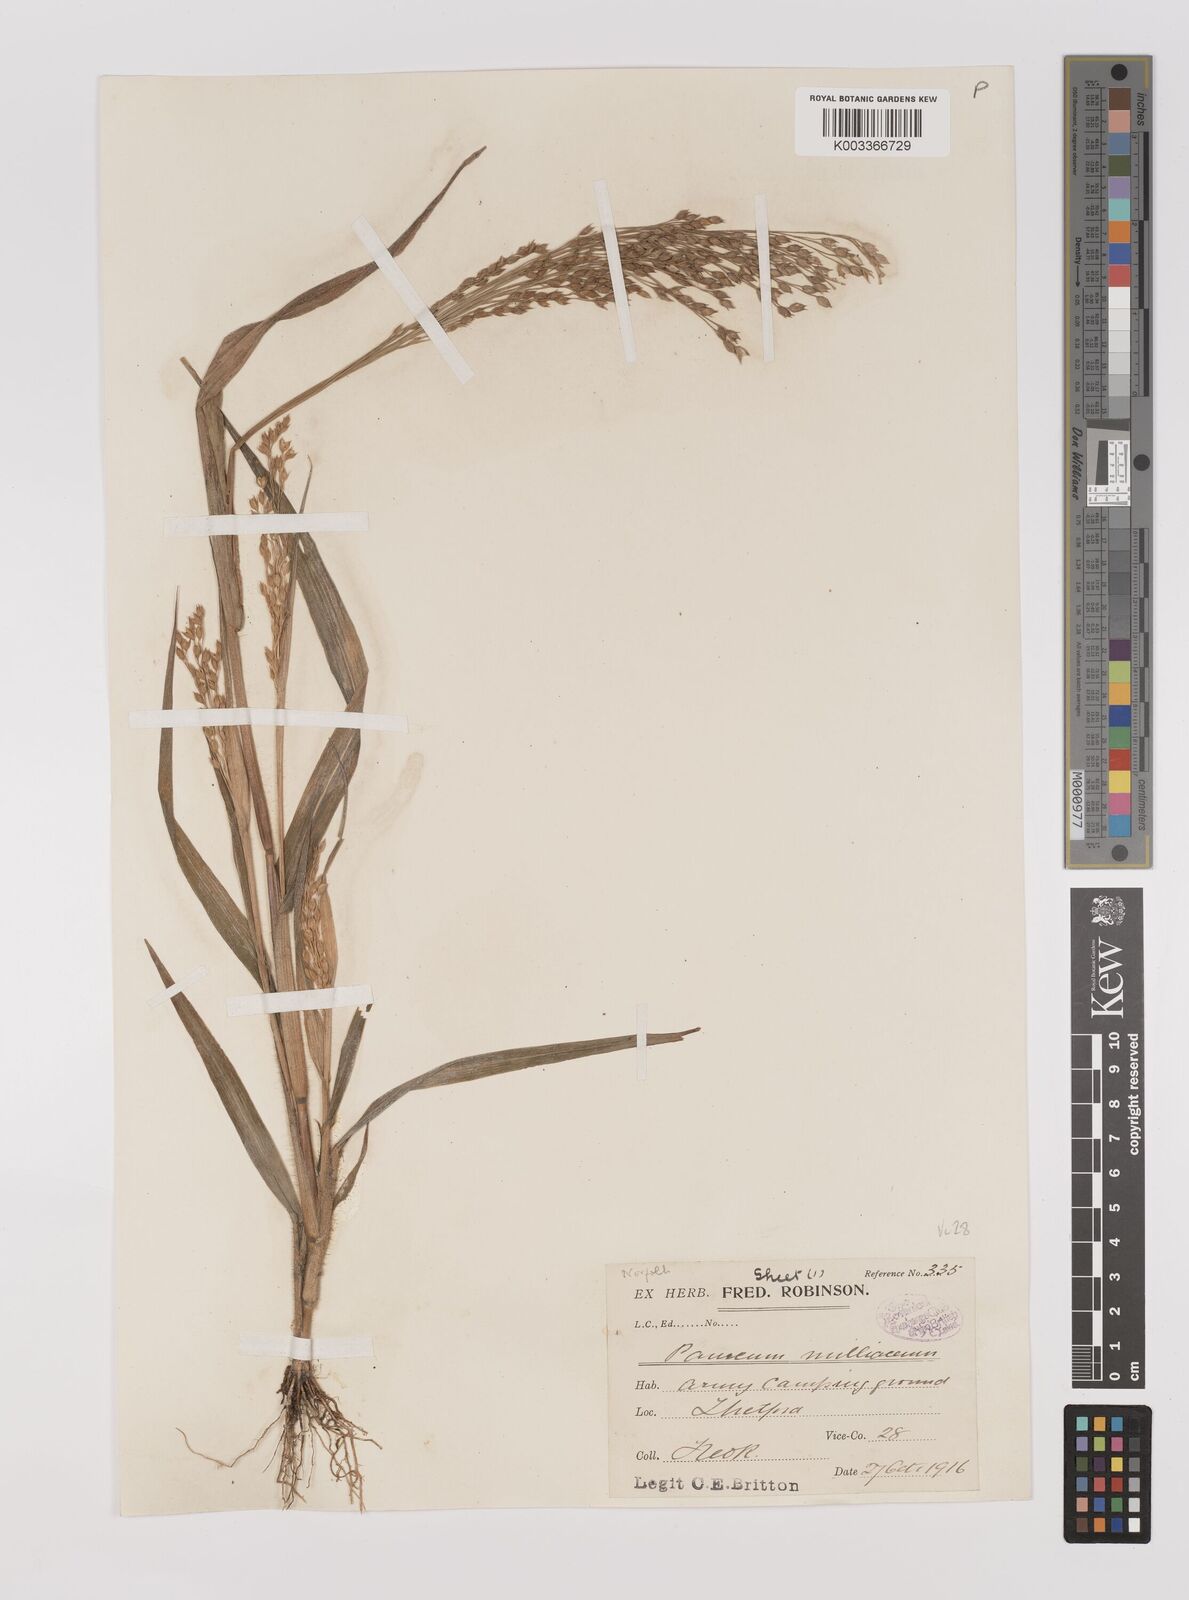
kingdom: Plantae
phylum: Tracheophyta
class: Liliopsida
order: Poales
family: Poaceae
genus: Panicum
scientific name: Panicum miliaceum
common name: Common millet
